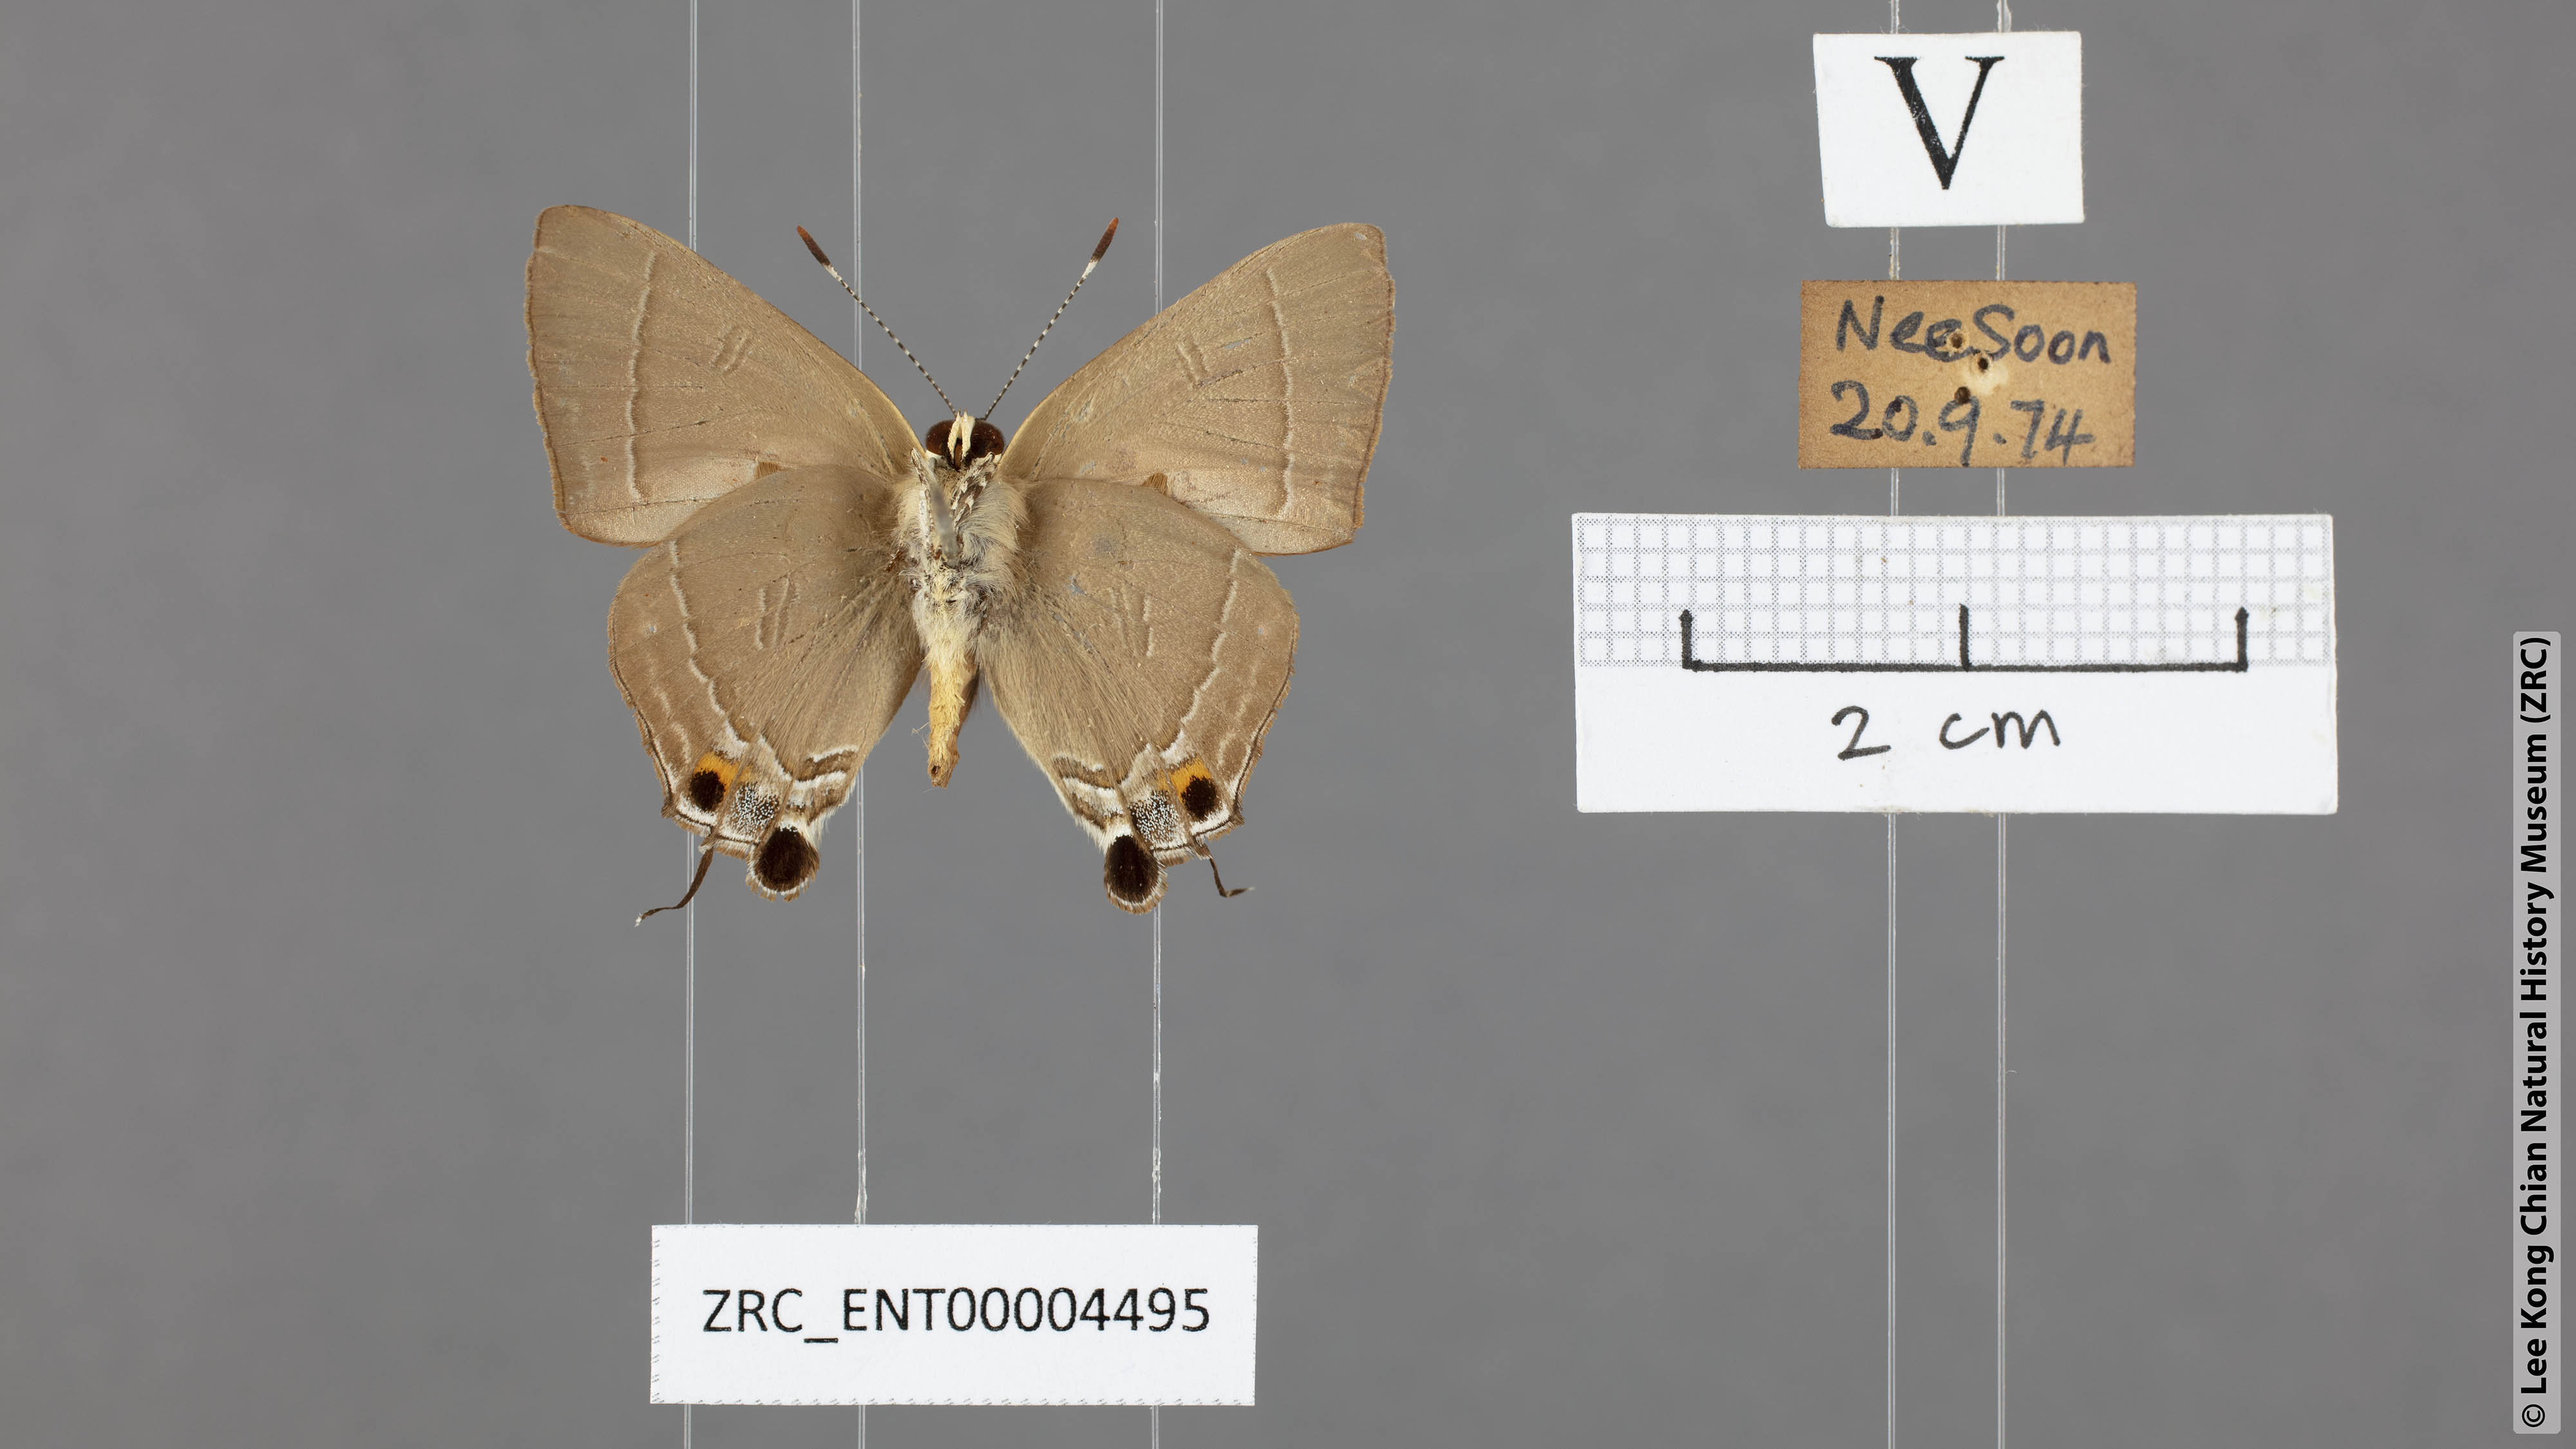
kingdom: Animalia
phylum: Arthropoda
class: Insecta
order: Lepidoptera
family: Lycaenidae
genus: Rapala
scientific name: Rapala iarbas
